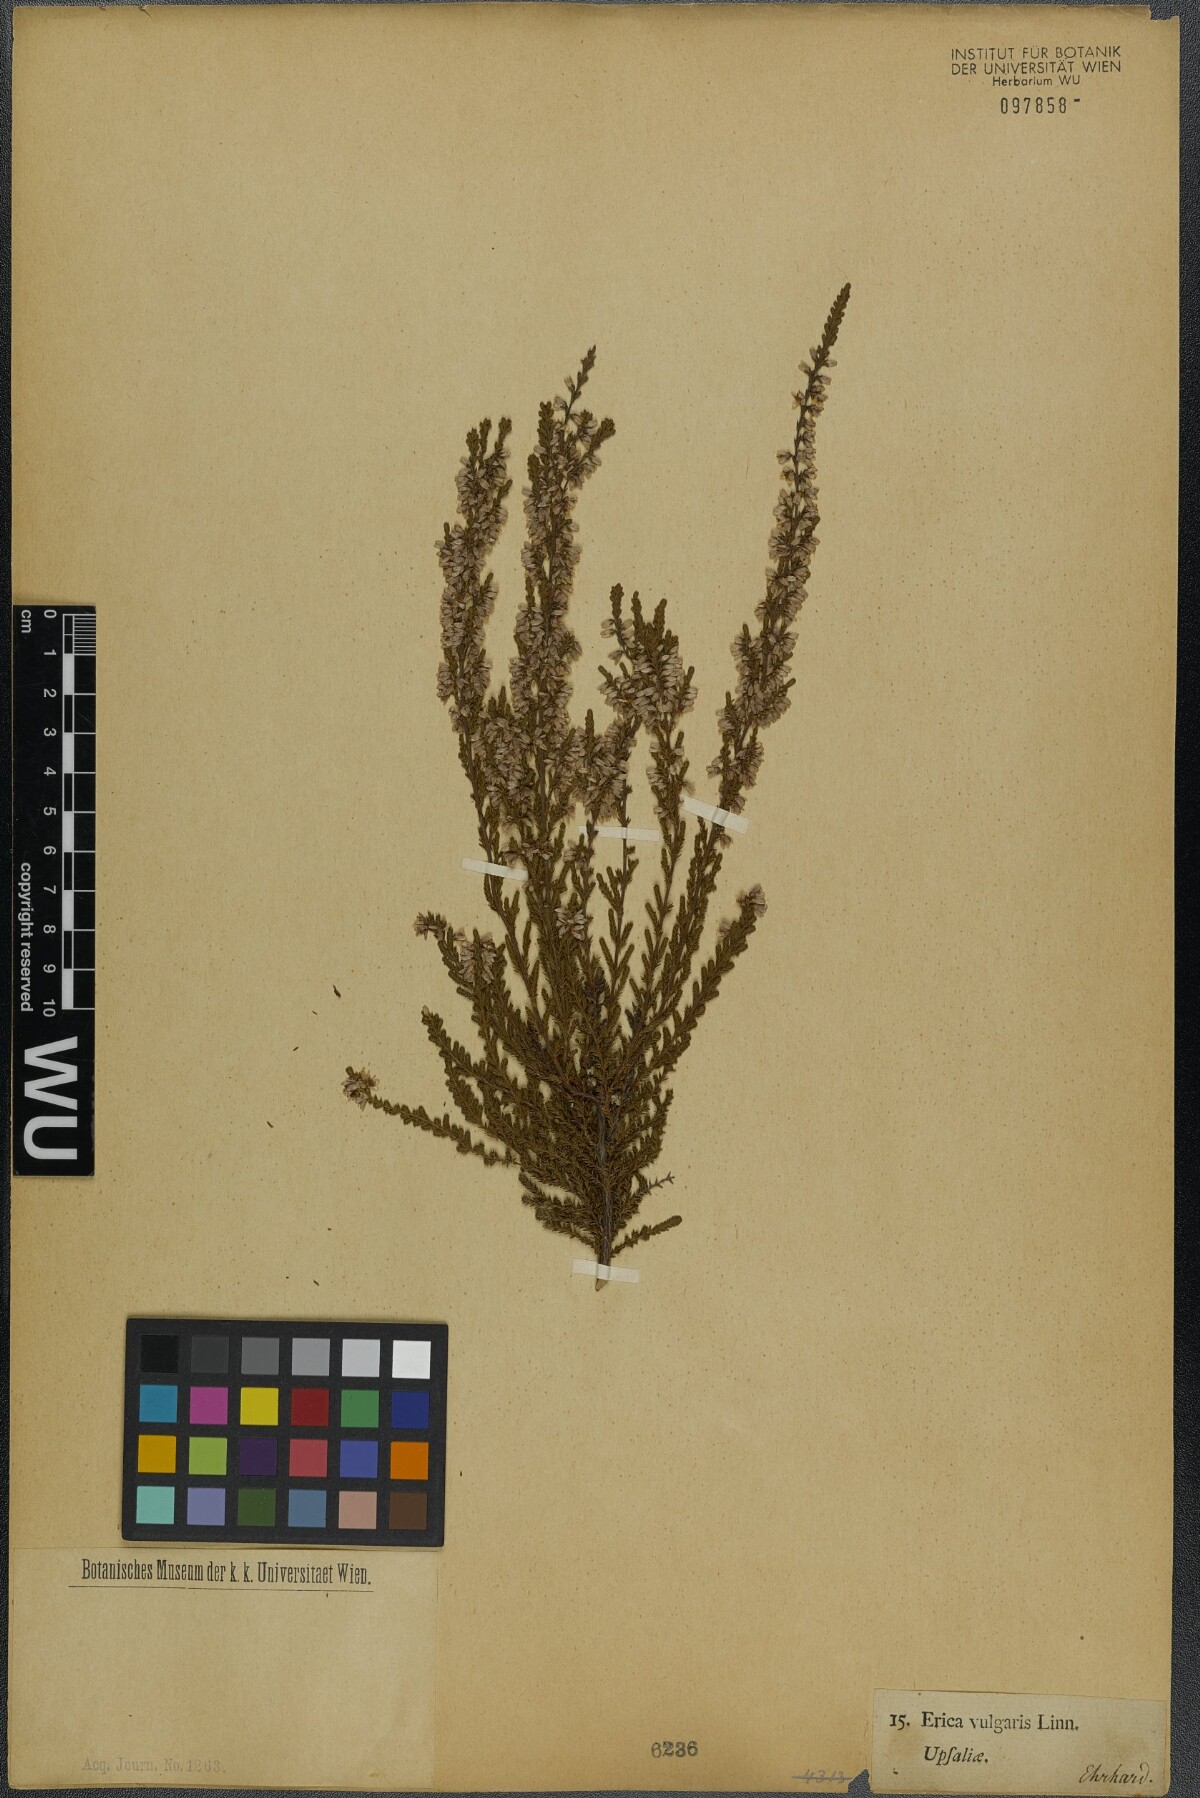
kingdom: Plantae
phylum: Tracheophyta
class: Magnoliopsida
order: Ericales
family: Ericaceae
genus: Calluna
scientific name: Calluna vulgaris
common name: Heather
